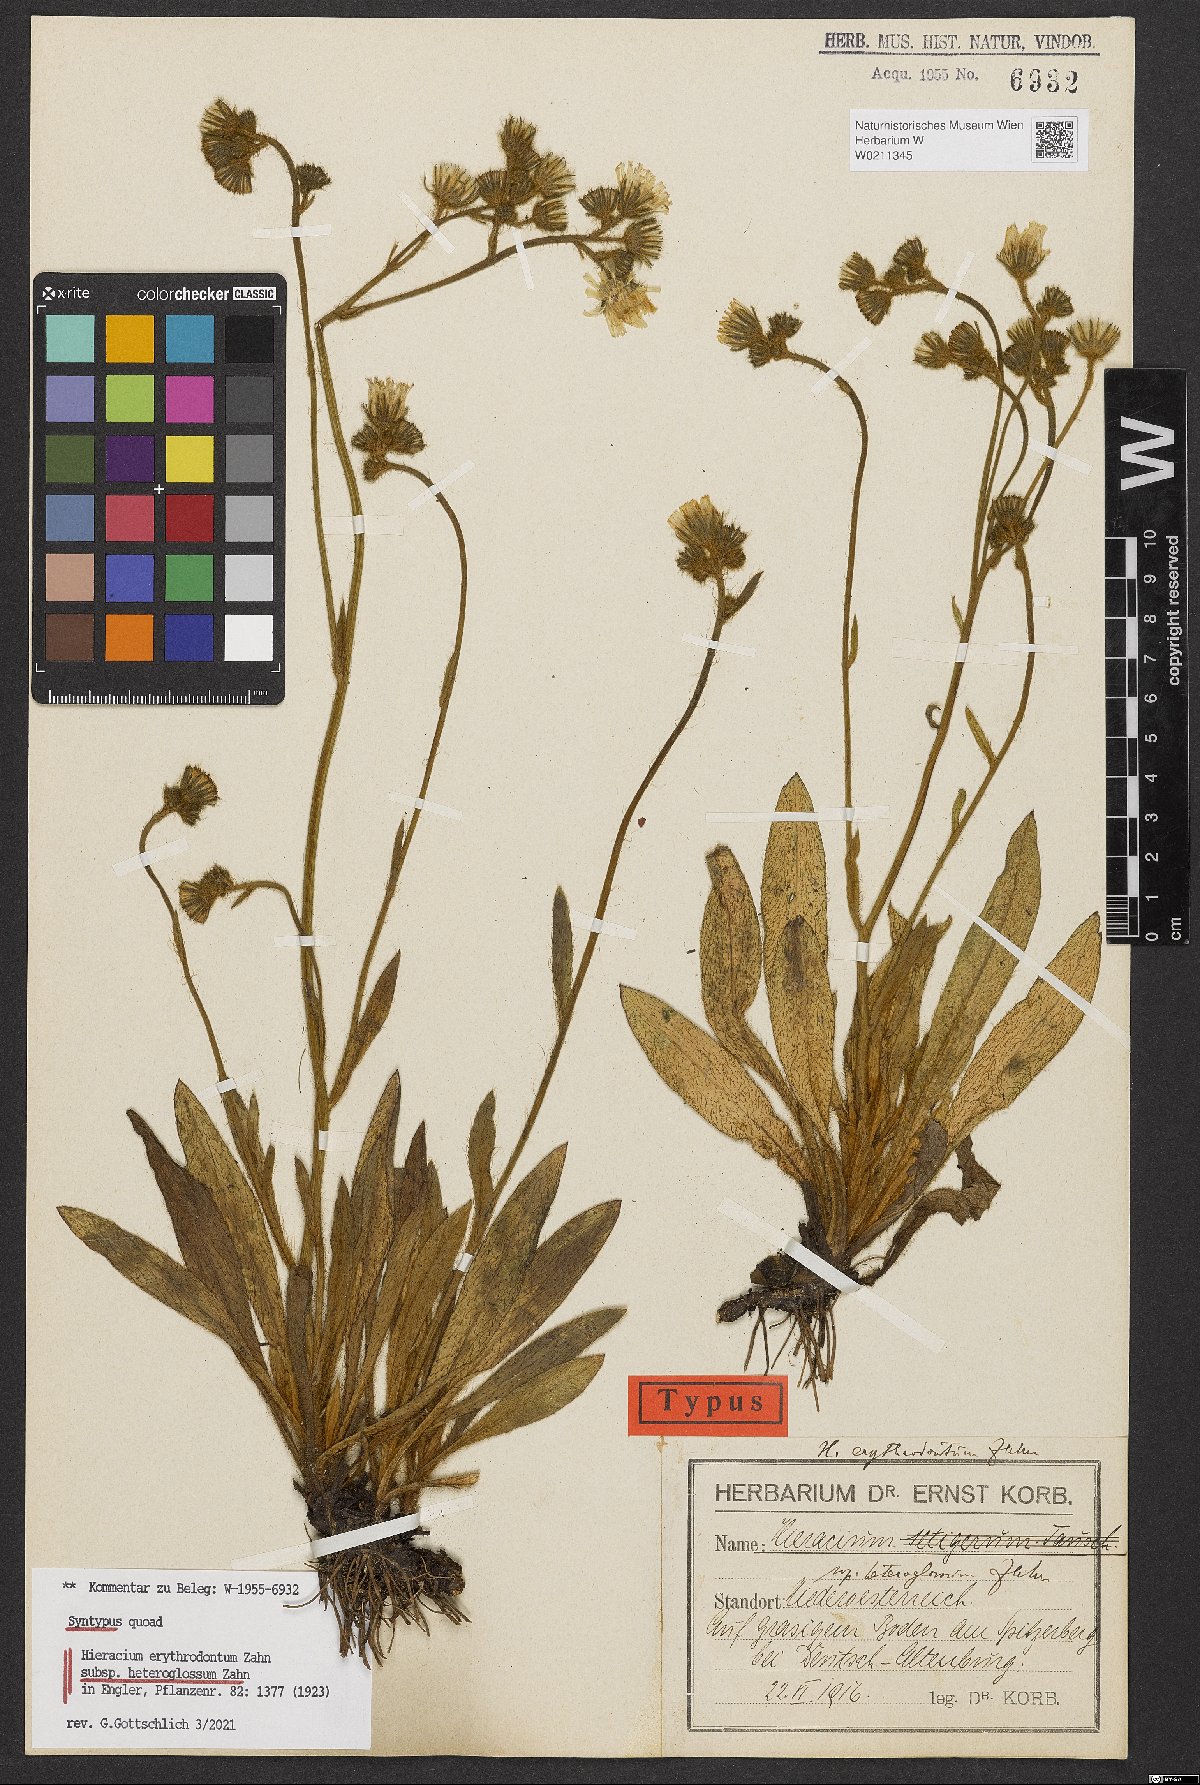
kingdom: Plantae
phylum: Tracheophyta
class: Magnoliopsida
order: Asterales
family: Asteraceae
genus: Pilosella
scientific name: Pilosella erythrodonta
